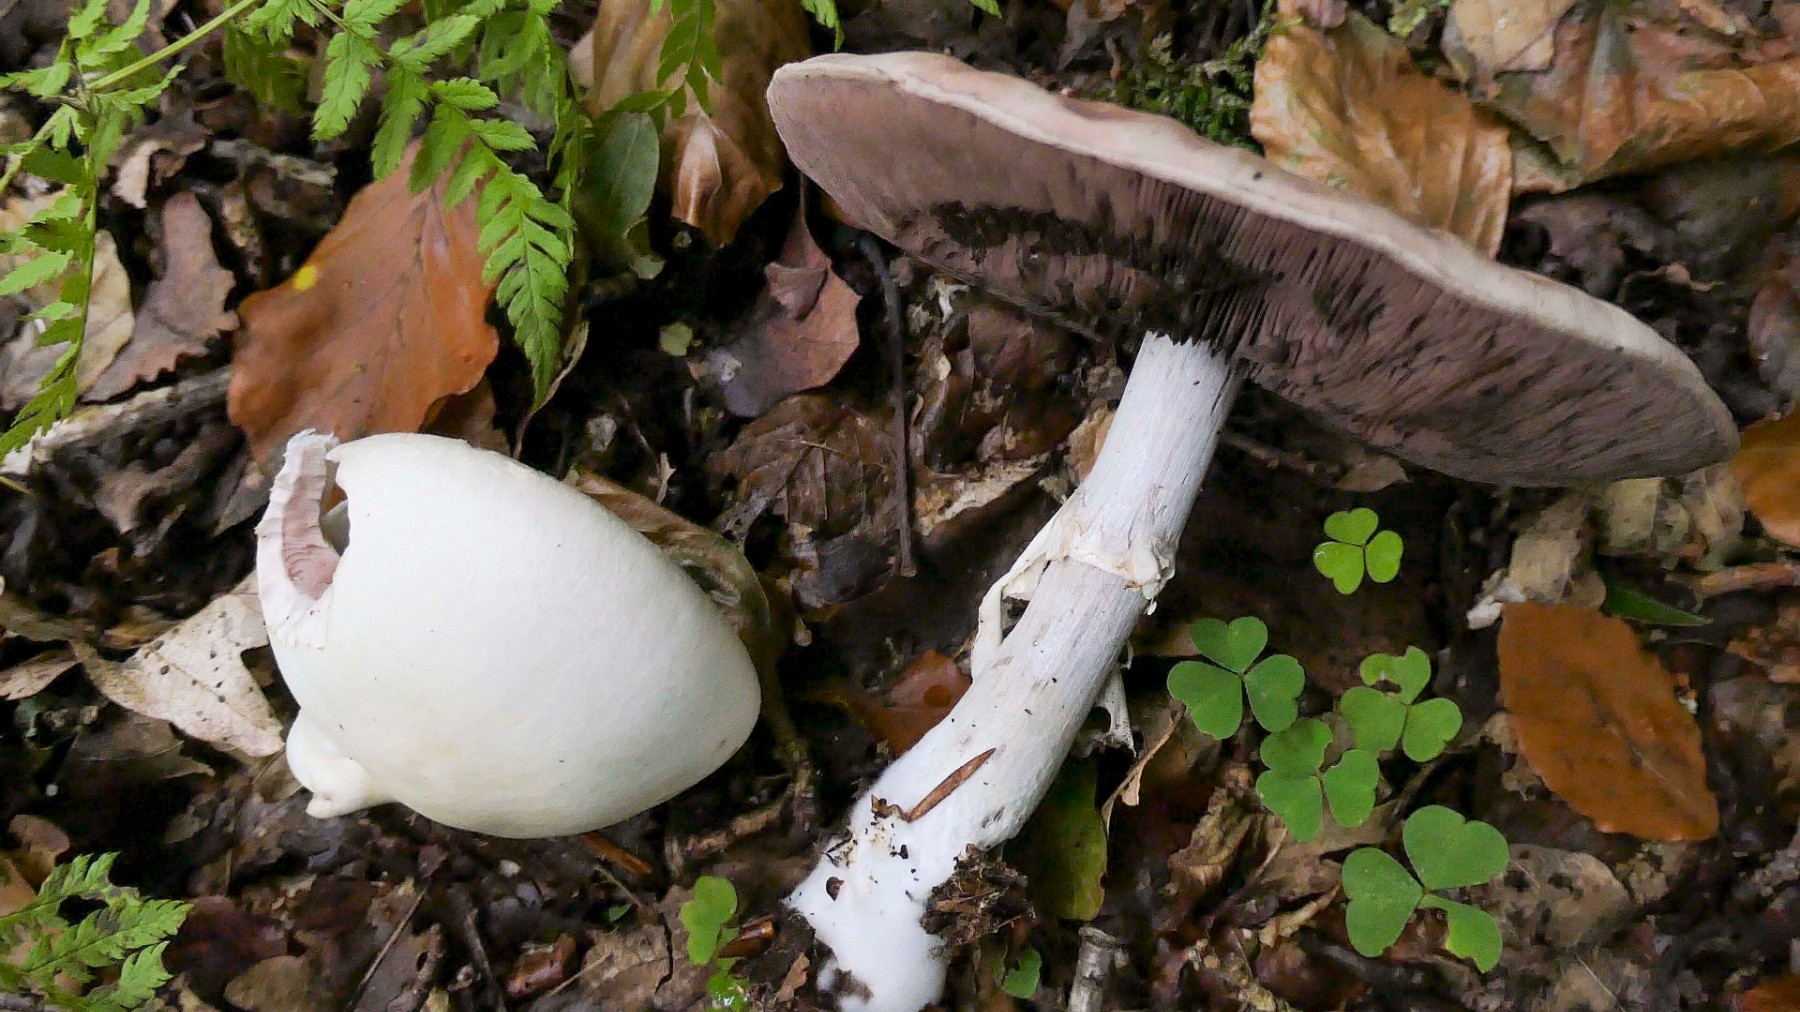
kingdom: Fungi
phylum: Basidiomycota
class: Agaricomycetes
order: Agaricales
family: Agaricaceae
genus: Agaricus
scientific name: Agaricus sylvicola
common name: gulhvid champignon
